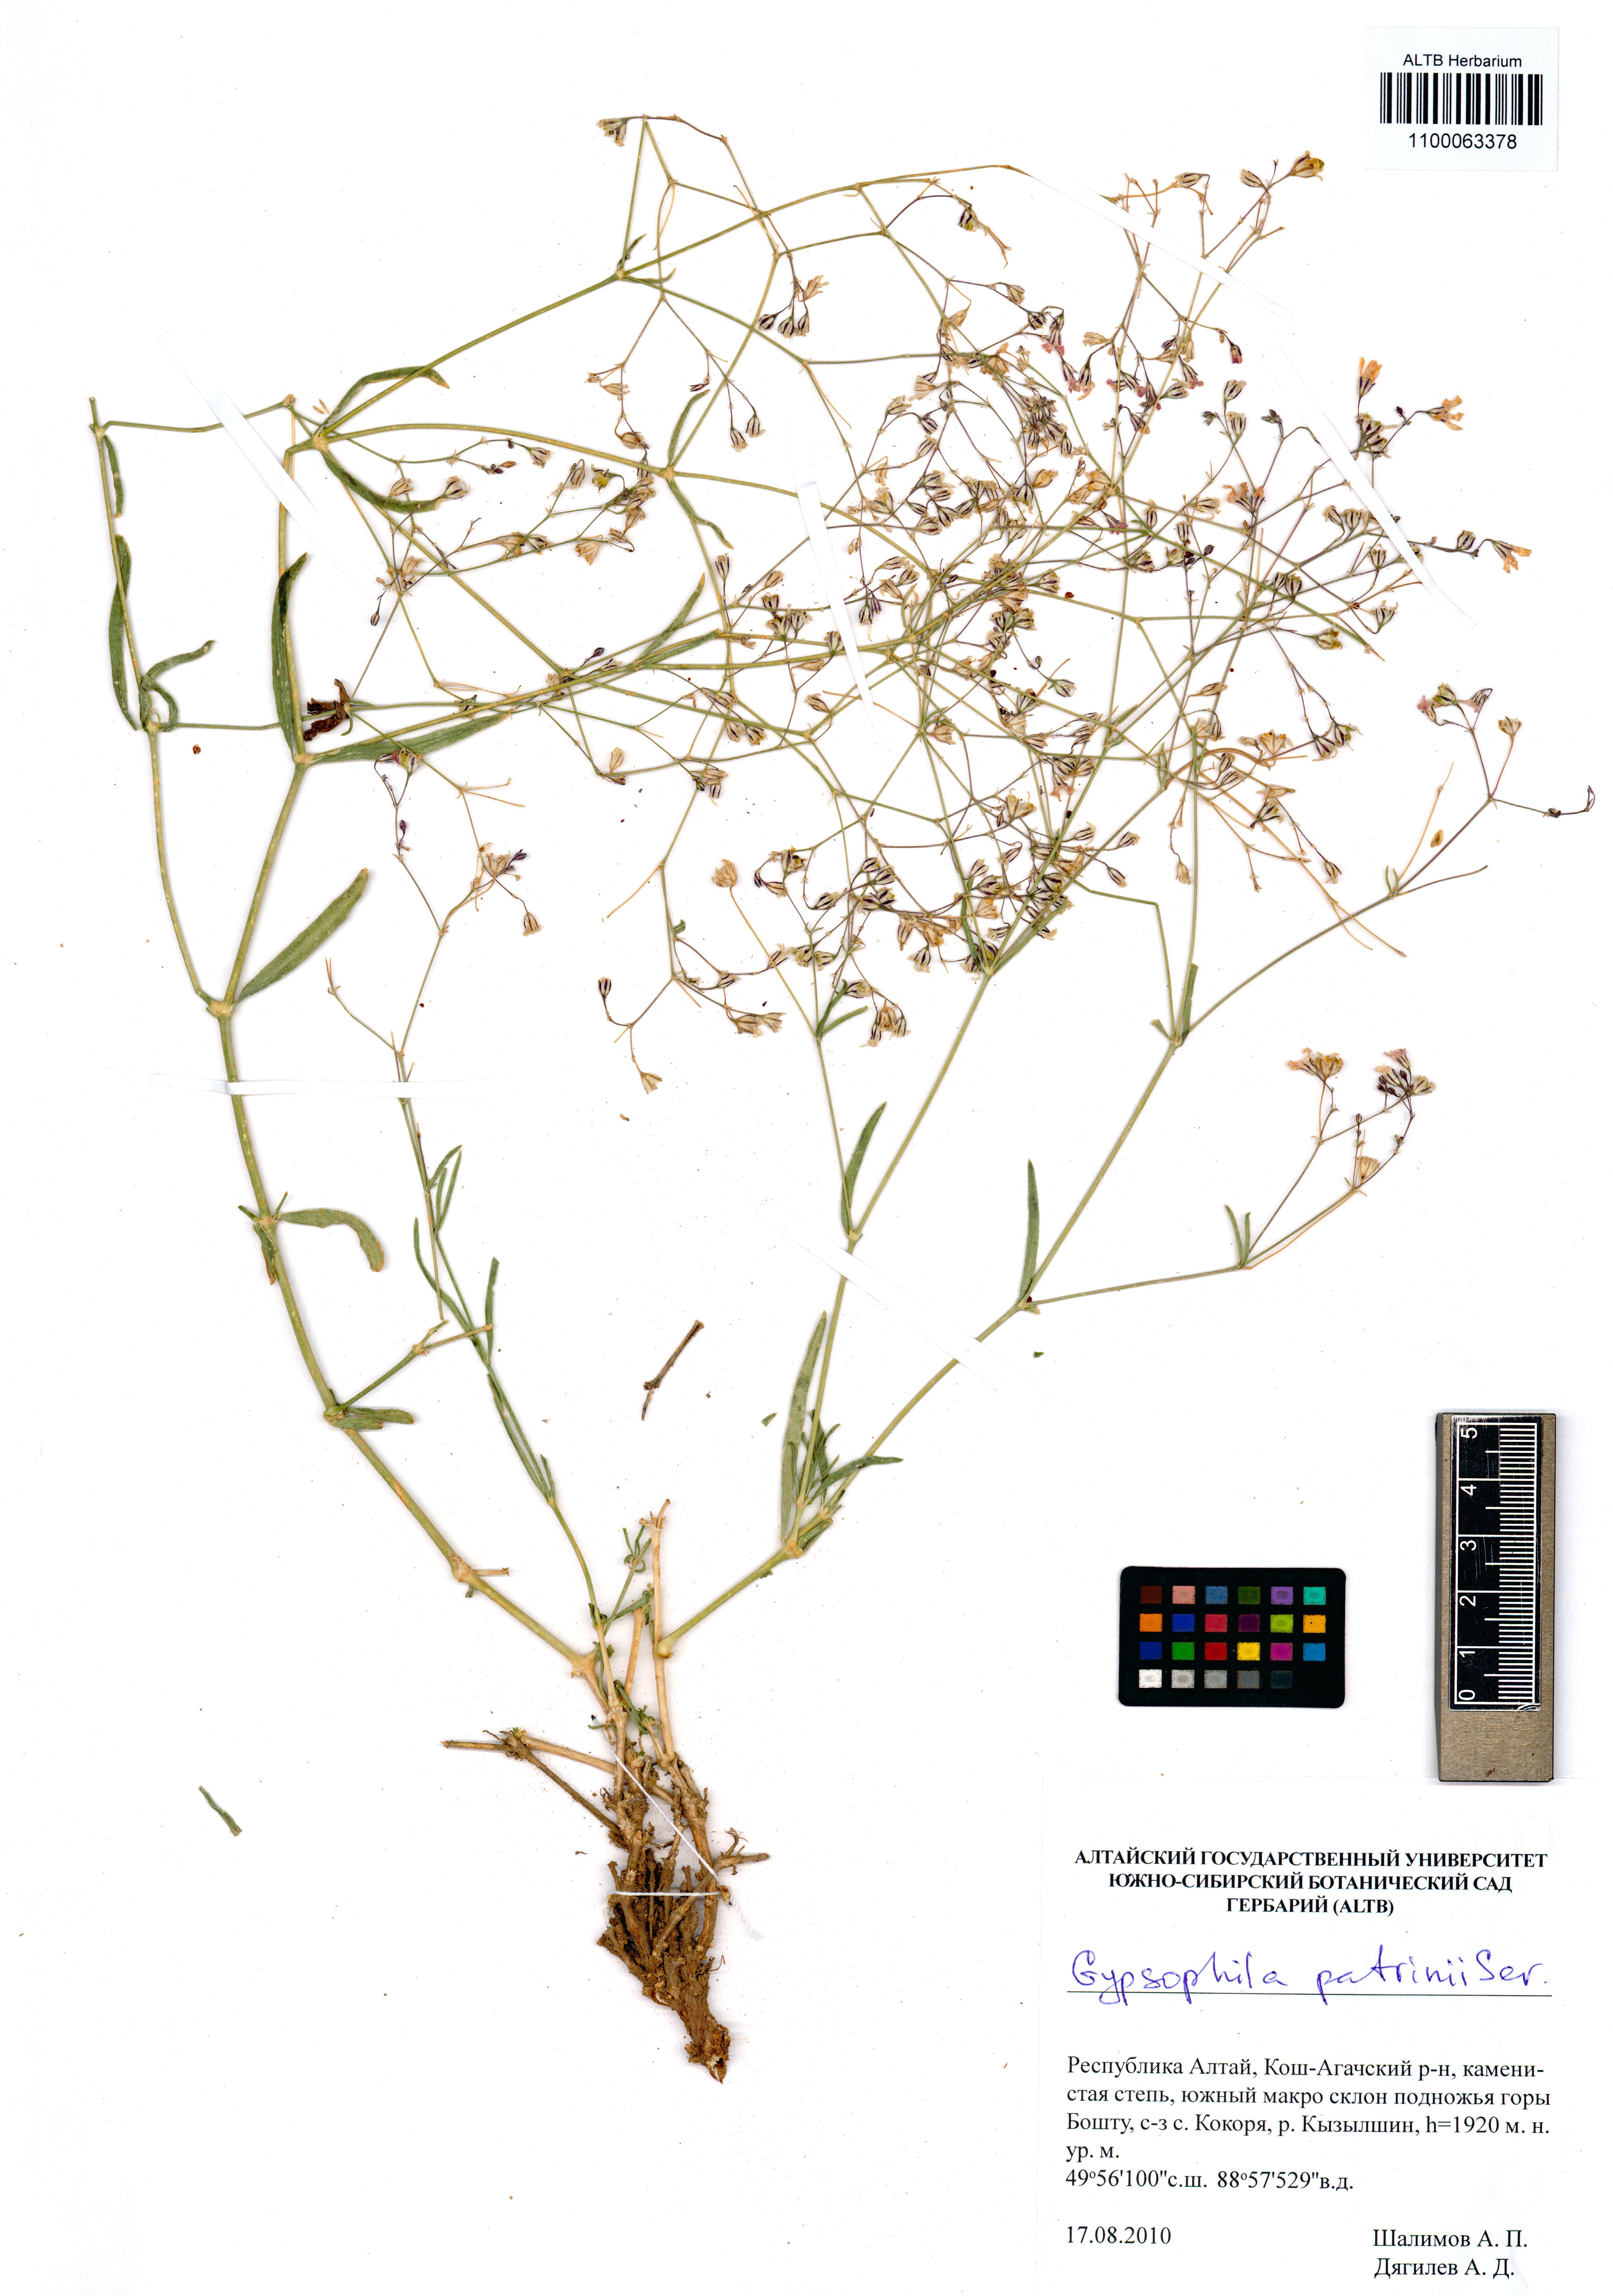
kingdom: Plantae
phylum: Tracheophyta
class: Magnoliopsida
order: Caryophyllales
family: Caryophyllaceae
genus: Gypsophila
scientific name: Gypsophila patrinii
